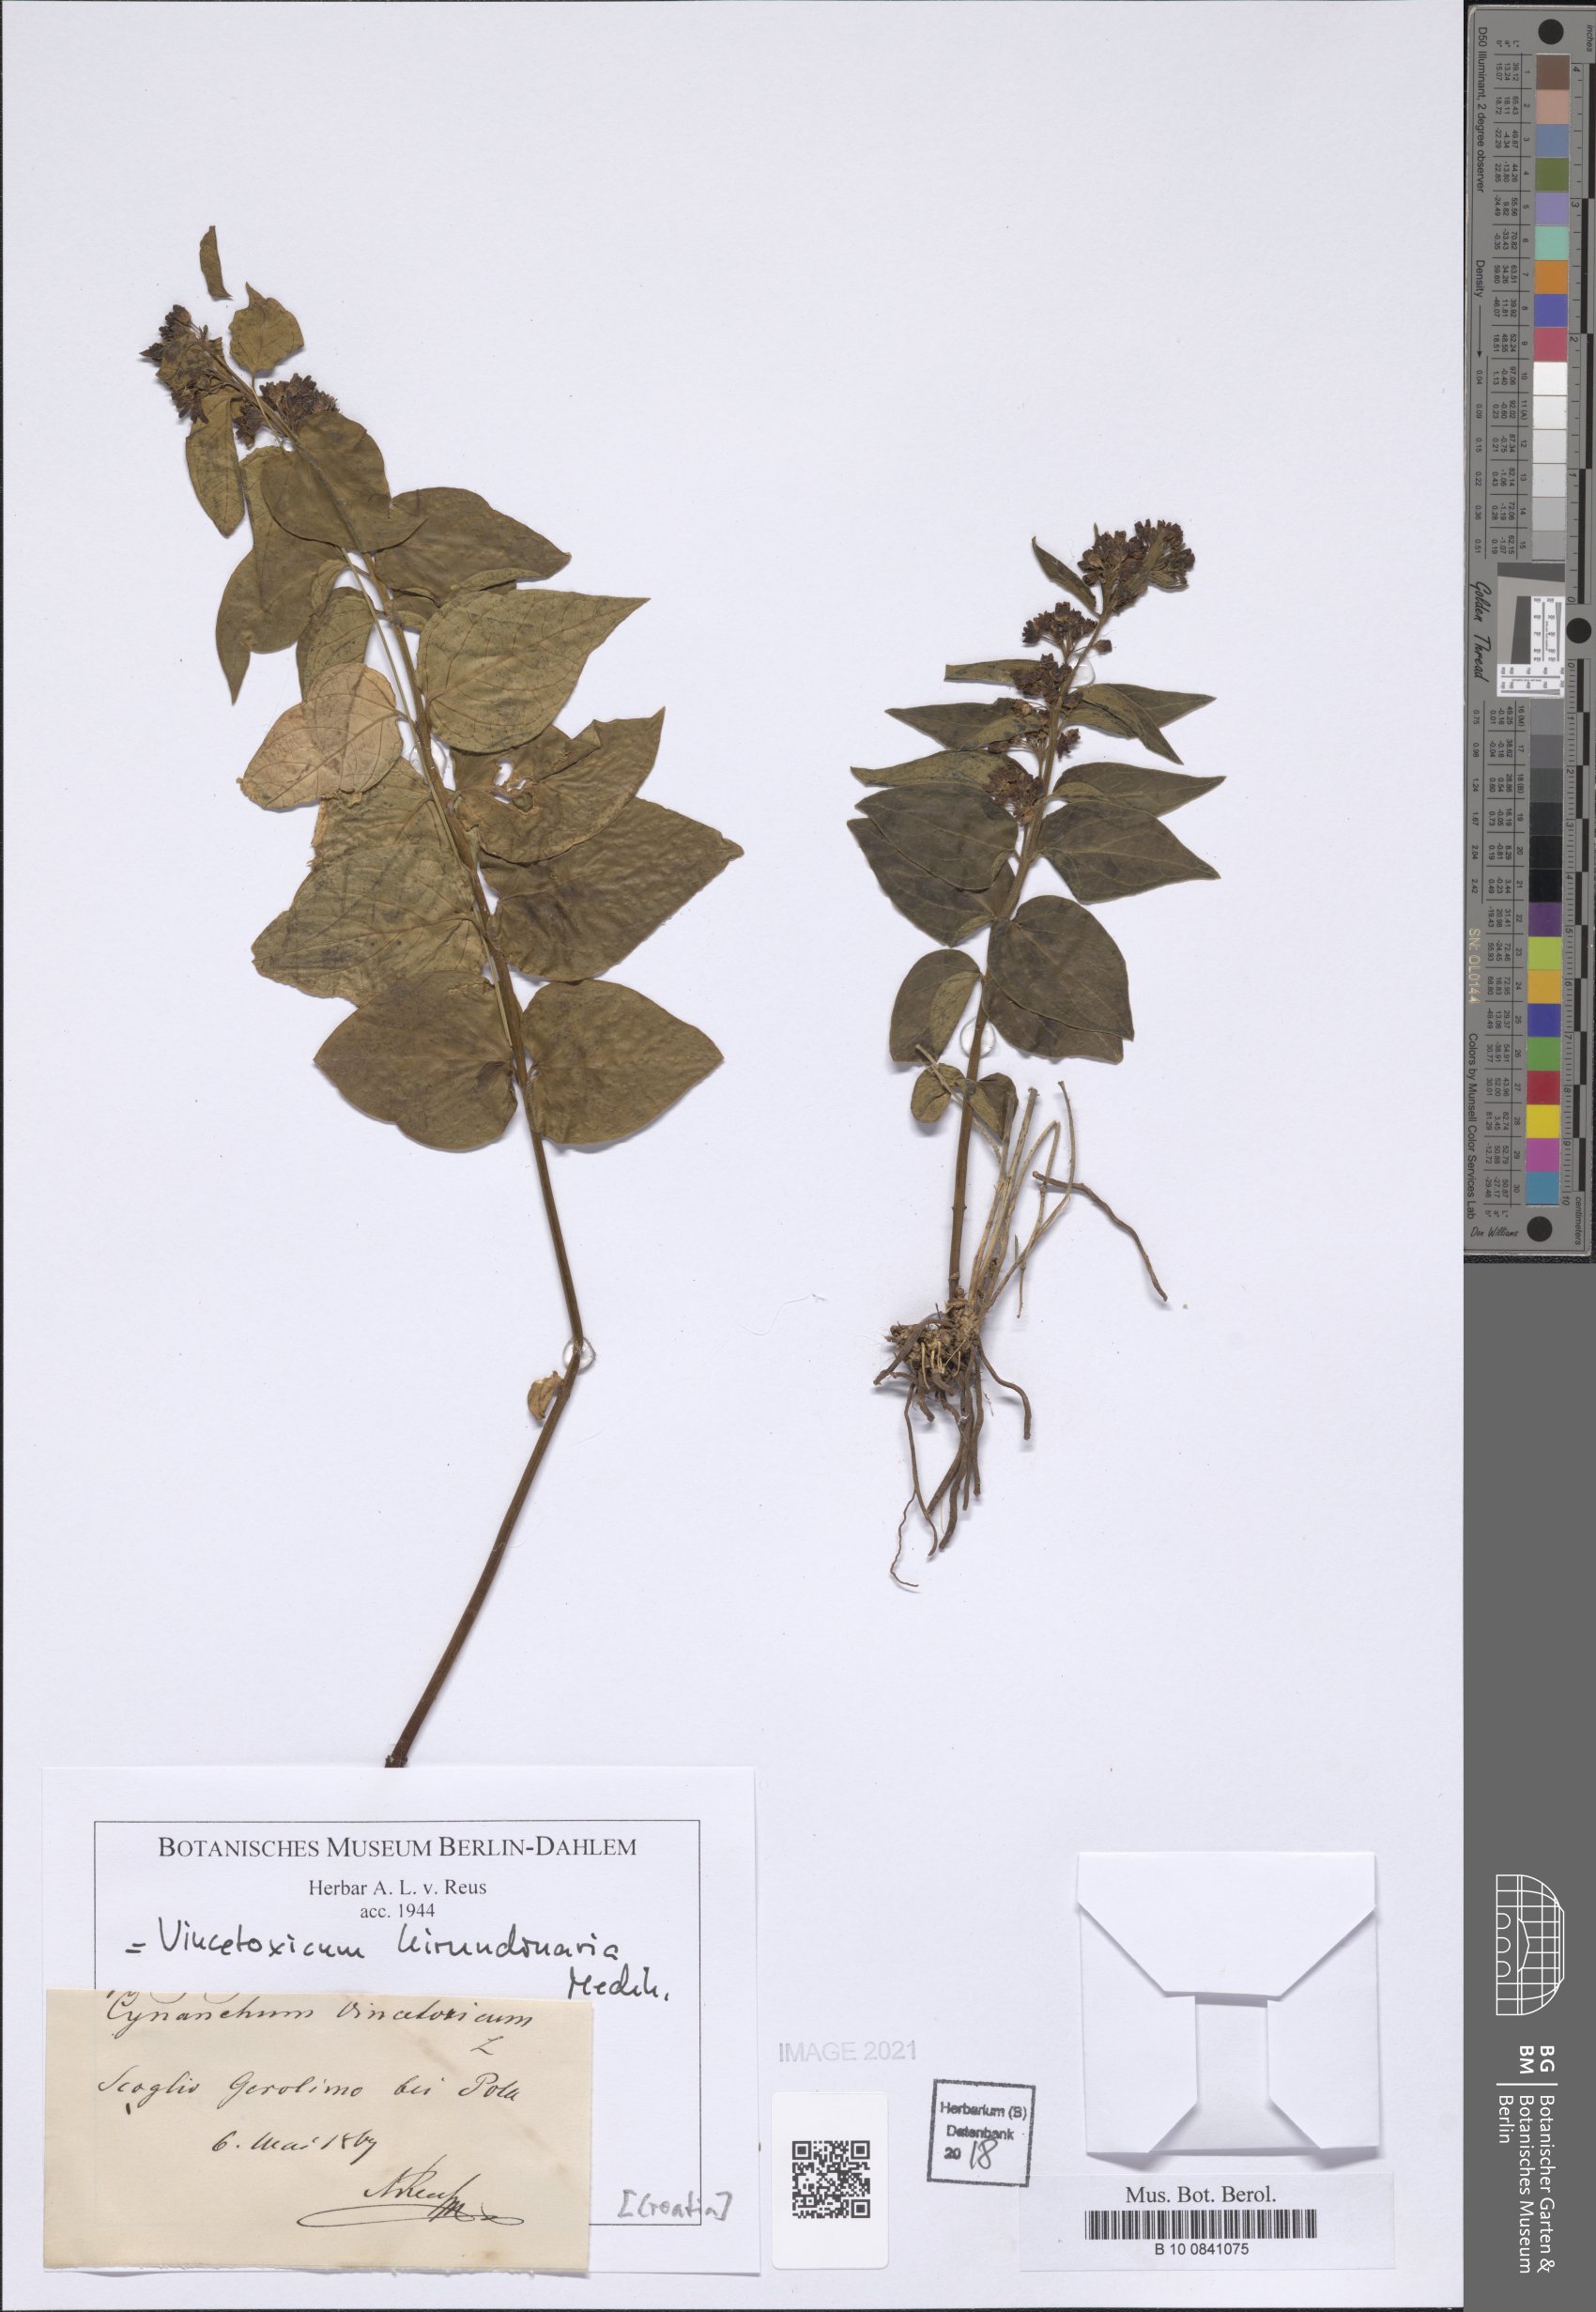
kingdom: Plantae
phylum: Tracheophyta
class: Magnoliopsida
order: Gentianales
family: Apocynaceae
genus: Vincetoxicum
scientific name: Vincetoxicum hirundinaria
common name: White swallowwort
